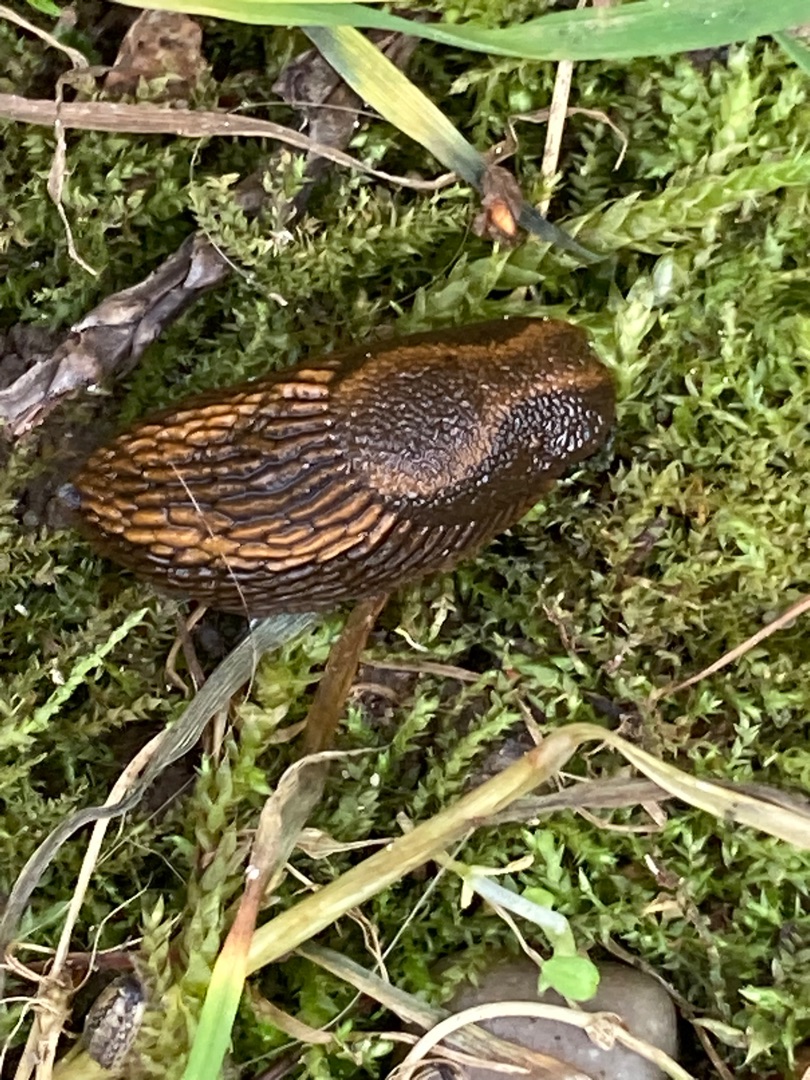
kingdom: Animalia
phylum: Mollusca
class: Gastropoda
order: Stylommatophora
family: Arionidae
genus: Arion
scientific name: Arion vulgaris
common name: Iberisk skovsnegl
